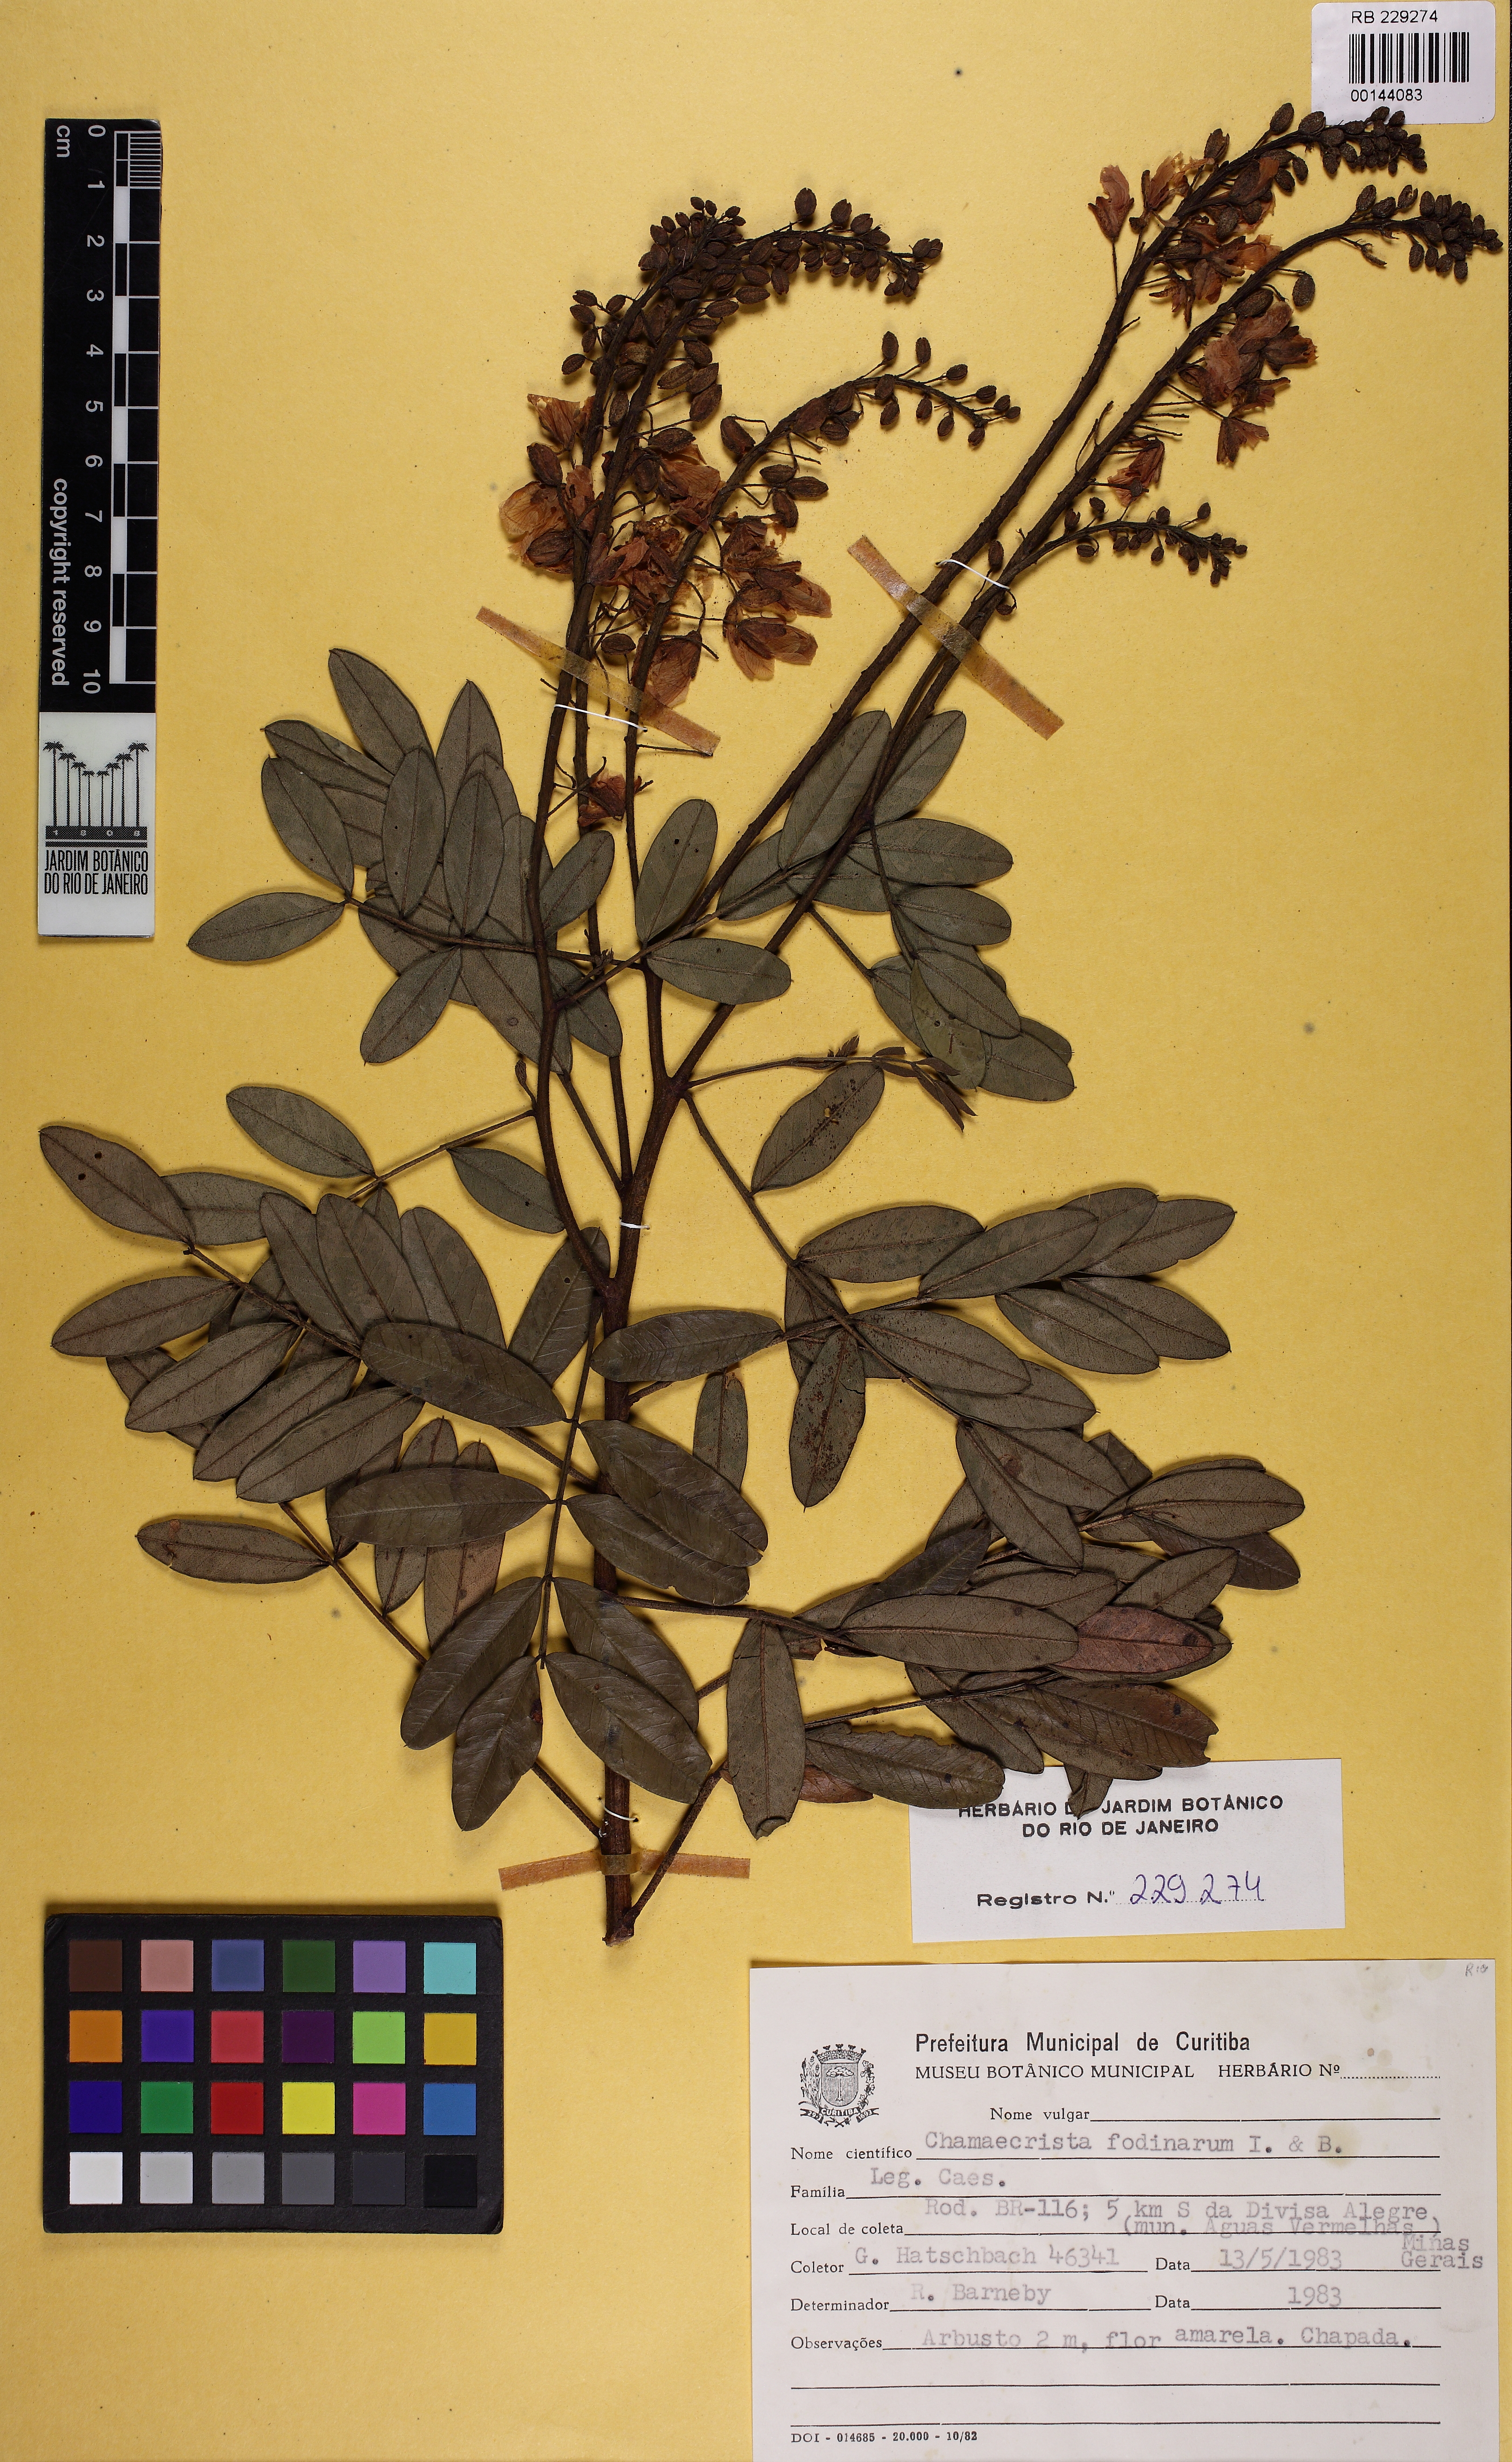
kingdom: Plantae
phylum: Tracheophyta
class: Magnoliopsida
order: Fabales
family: Fabaceae
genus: Chamaecrista
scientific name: Chamaecrista fodinarum
